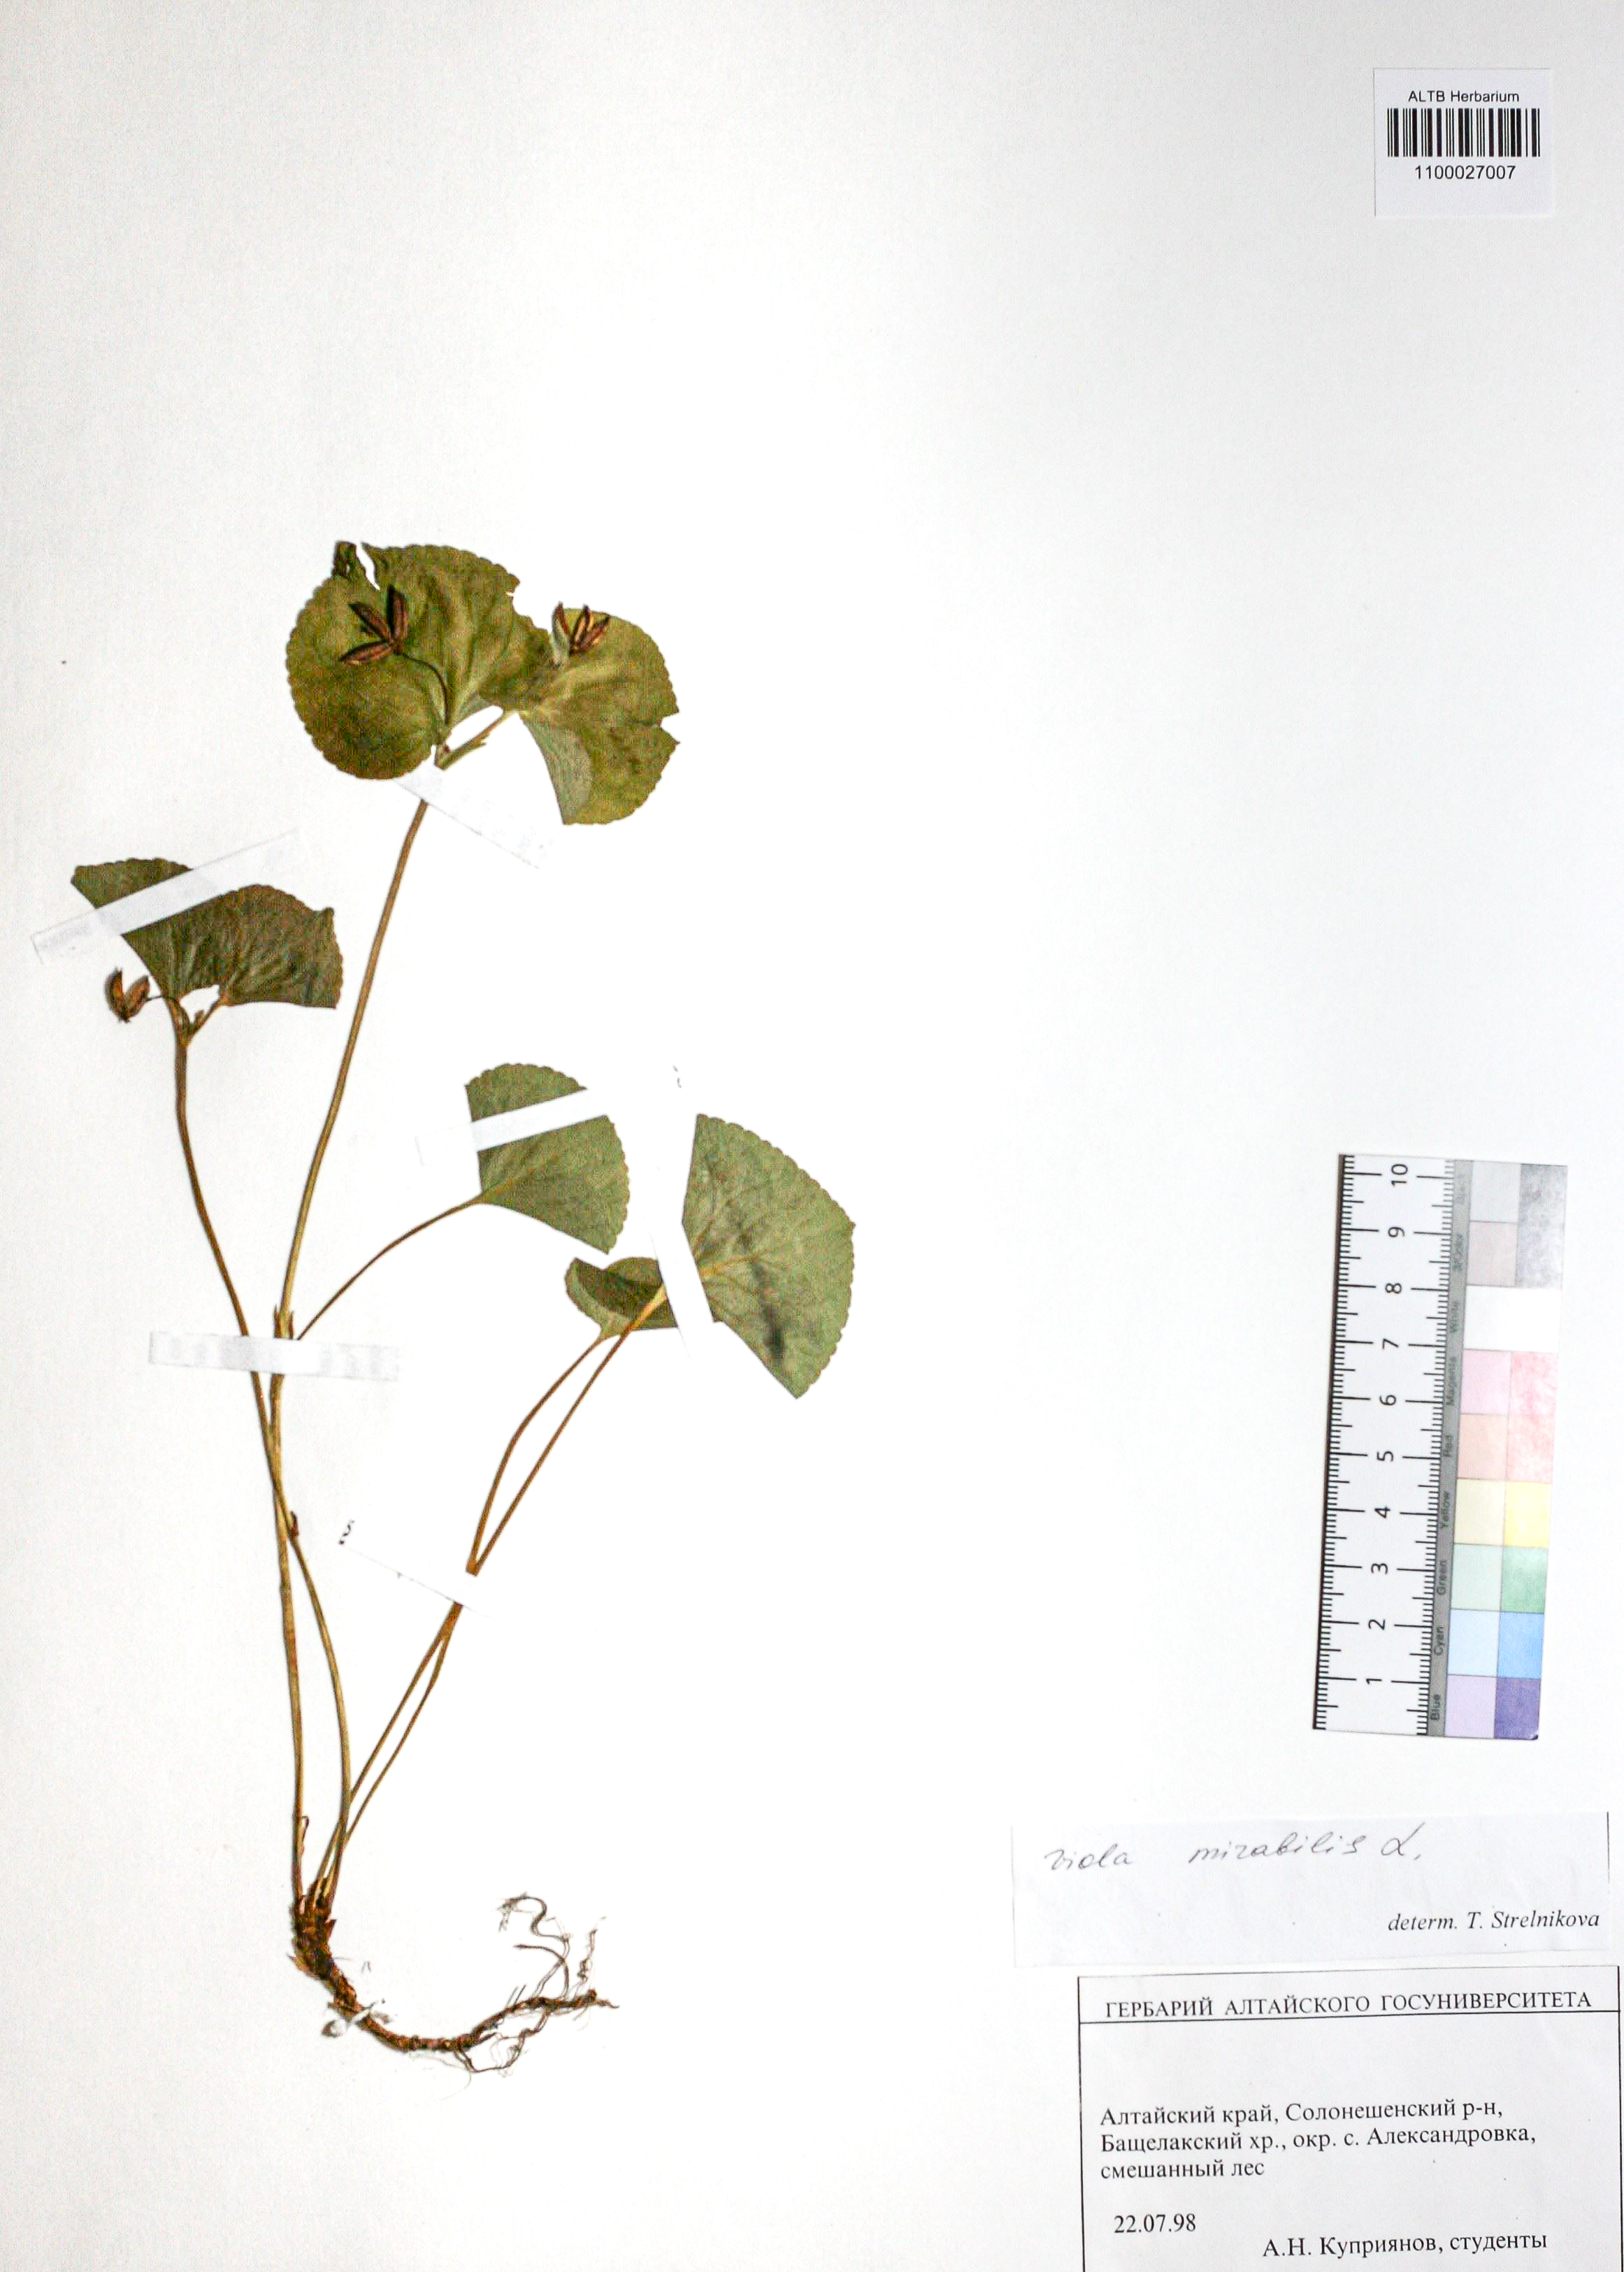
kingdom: Plantae
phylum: Tracheophyta
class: Magnoliopsida
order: Malpighiales
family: Violaceae
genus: Viola
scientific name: Viola mirabilis
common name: Wonder violet
